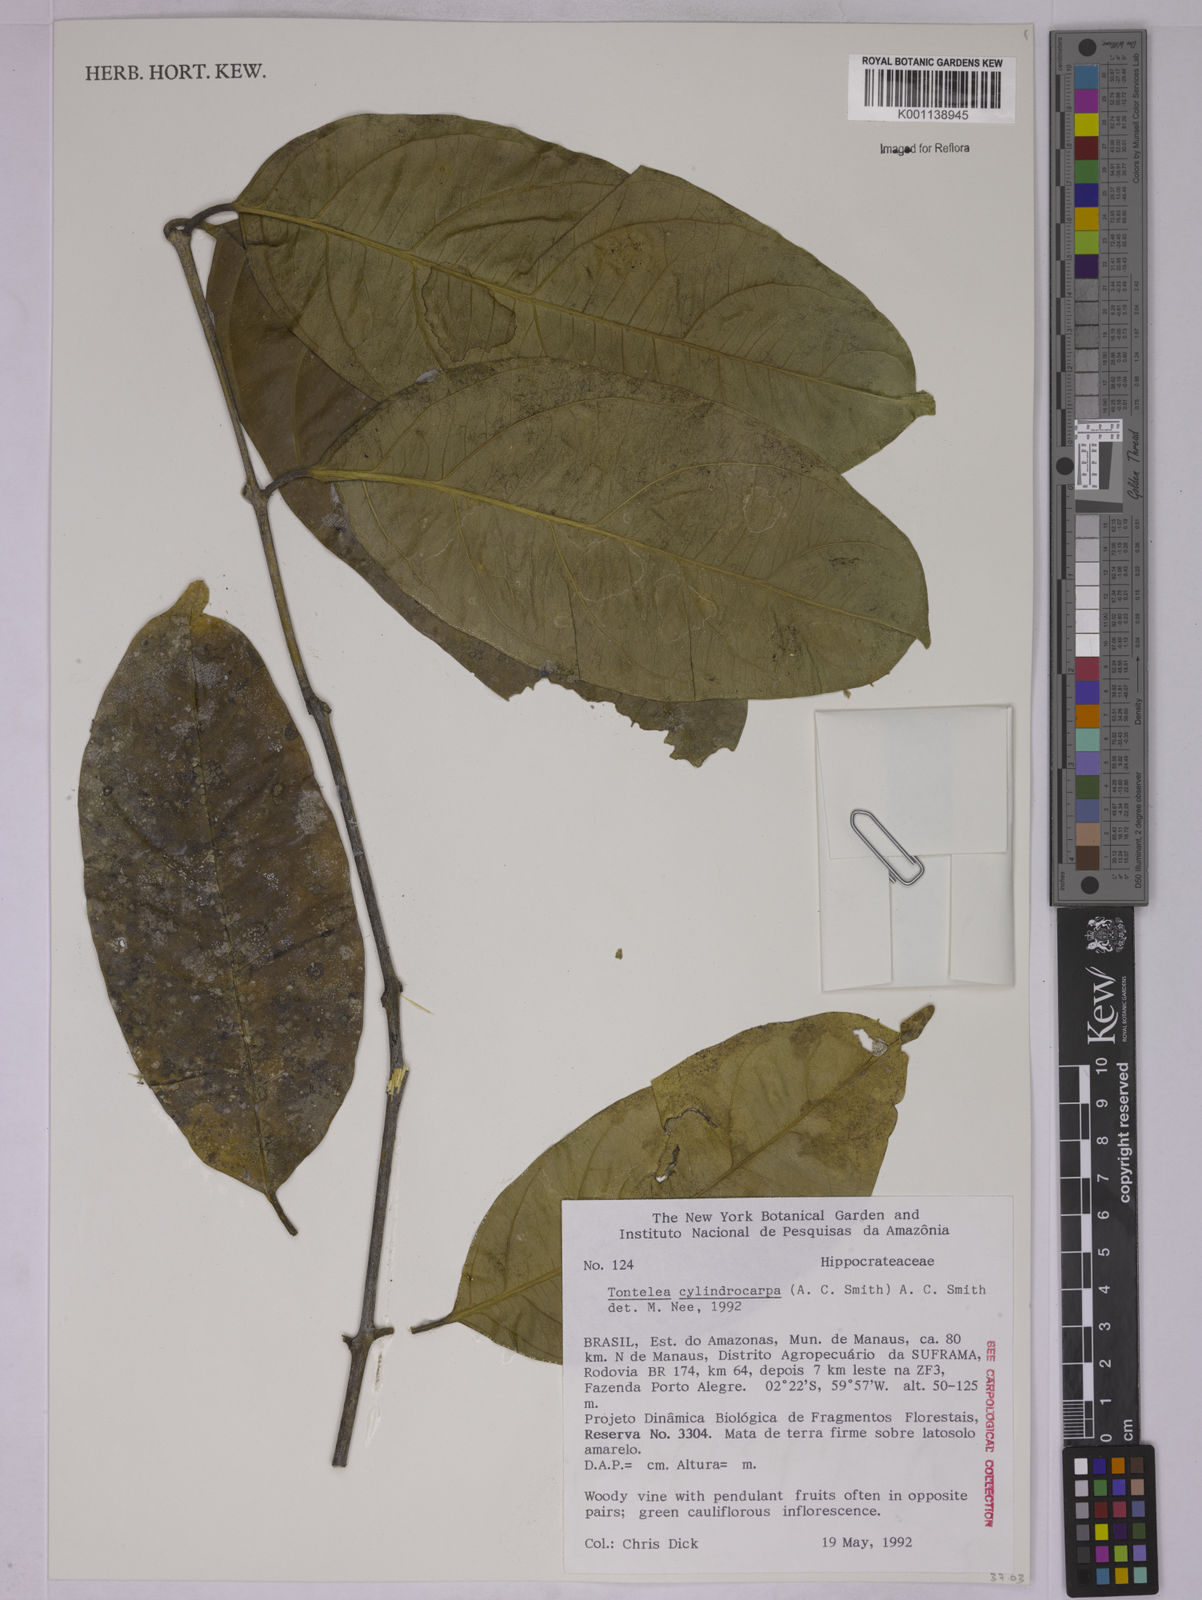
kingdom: Plantae
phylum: Tracheophyta
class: Magnoliopsida
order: Celastrales
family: Celastraceae
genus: Tontelea
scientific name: Tontelea cylindrocarpa
